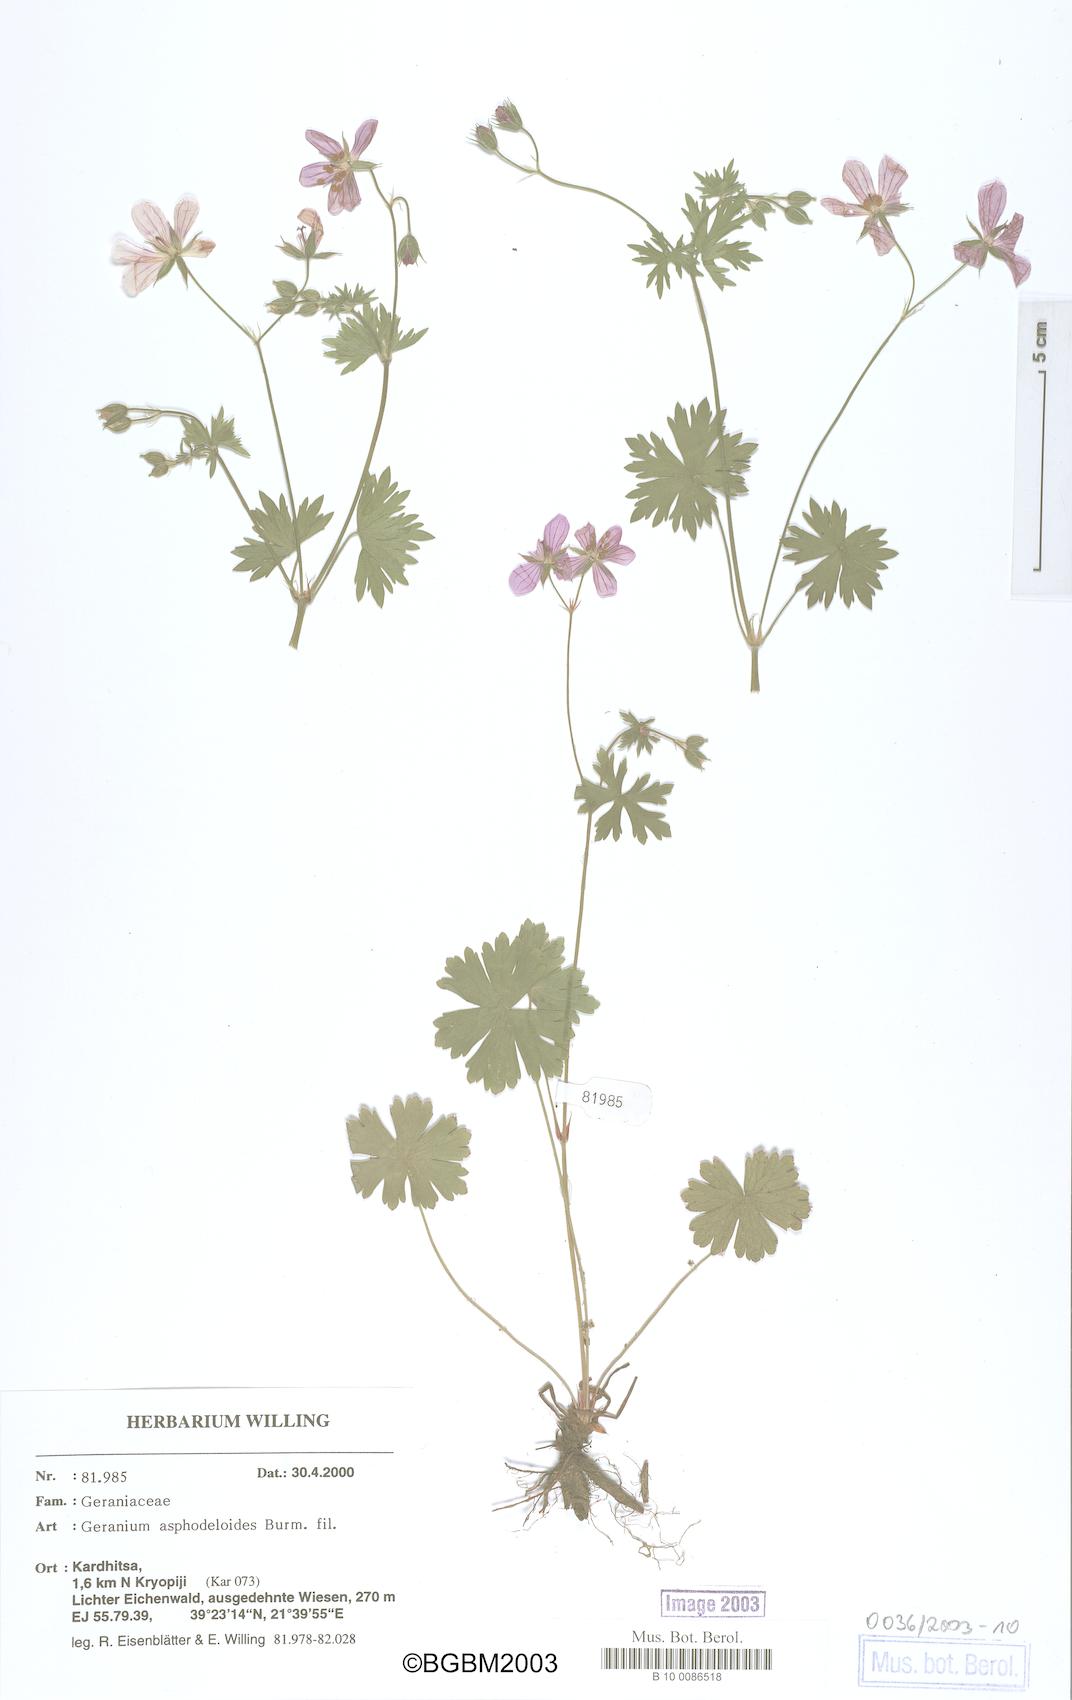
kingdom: Plantae
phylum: Tracheophyta
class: Magnoliopsida
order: Geraniales
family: Geraniaceae
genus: Geranium
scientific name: Geranium asphodeloides
